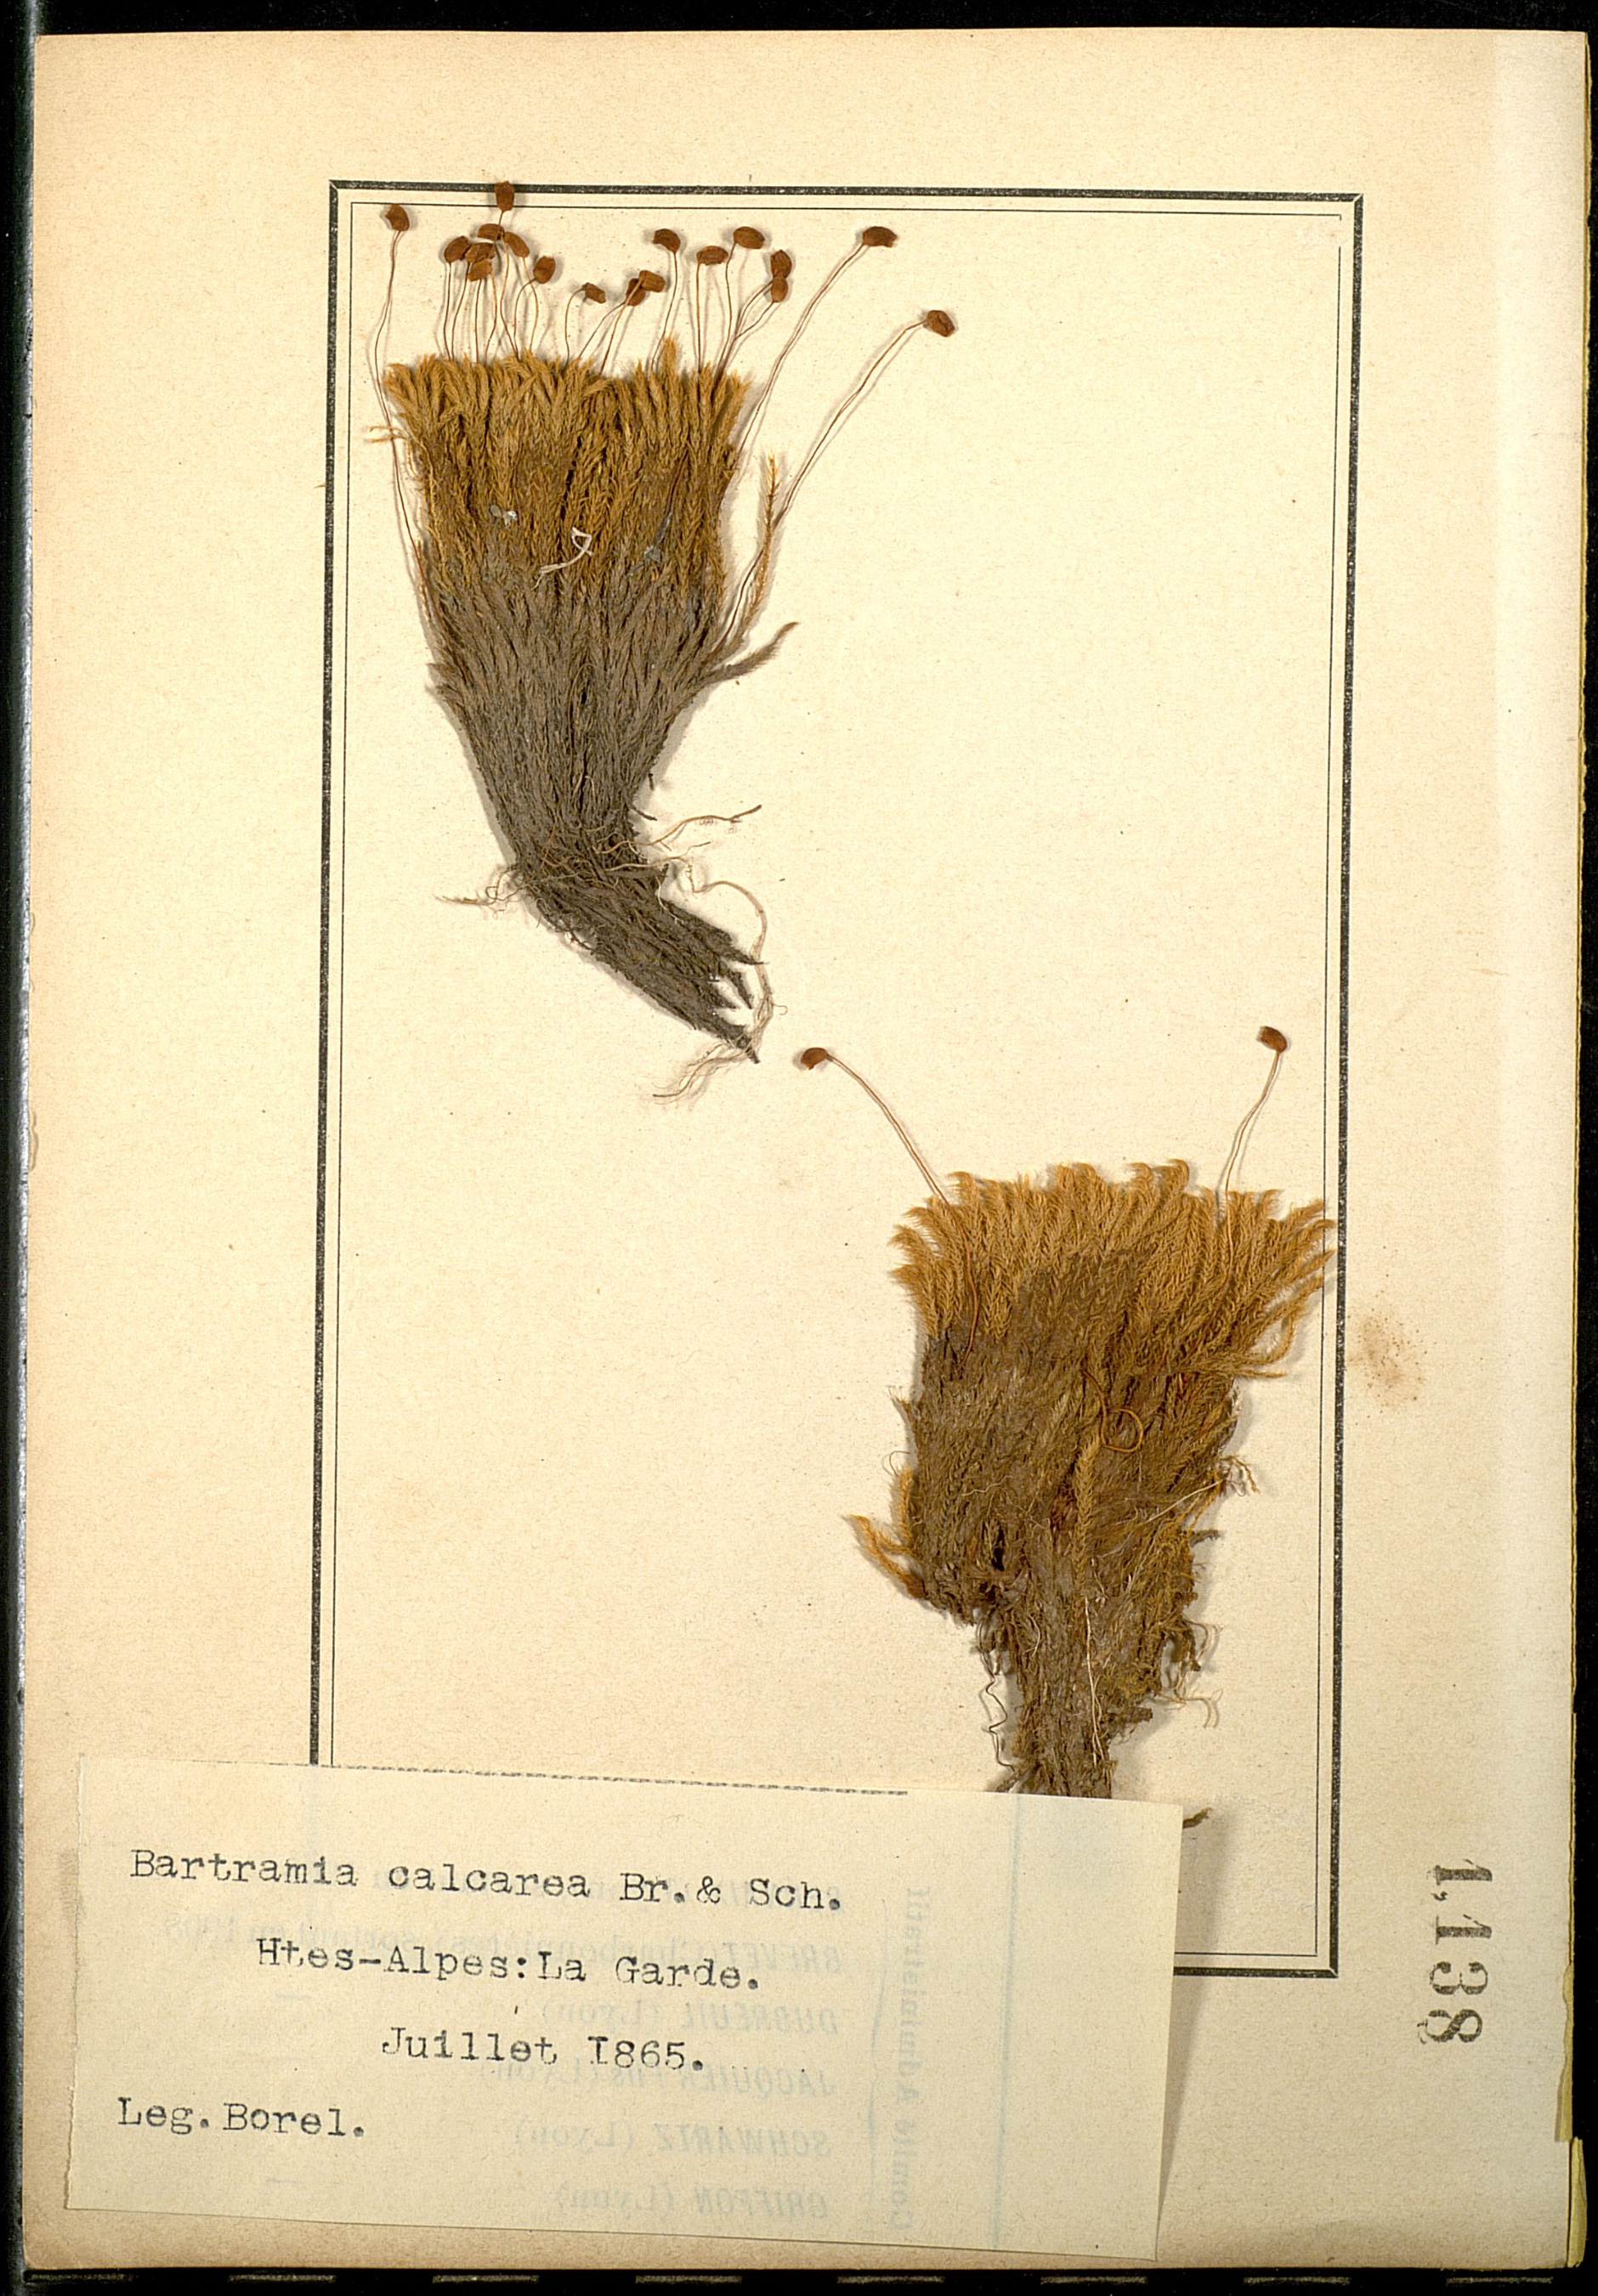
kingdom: Plantae
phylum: Bryophyta
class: Bryopsida
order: Bartramiales
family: Bartramiaceae
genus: Philonotis
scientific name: Philonotis calcarea
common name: Thick-nerved apple-moss
